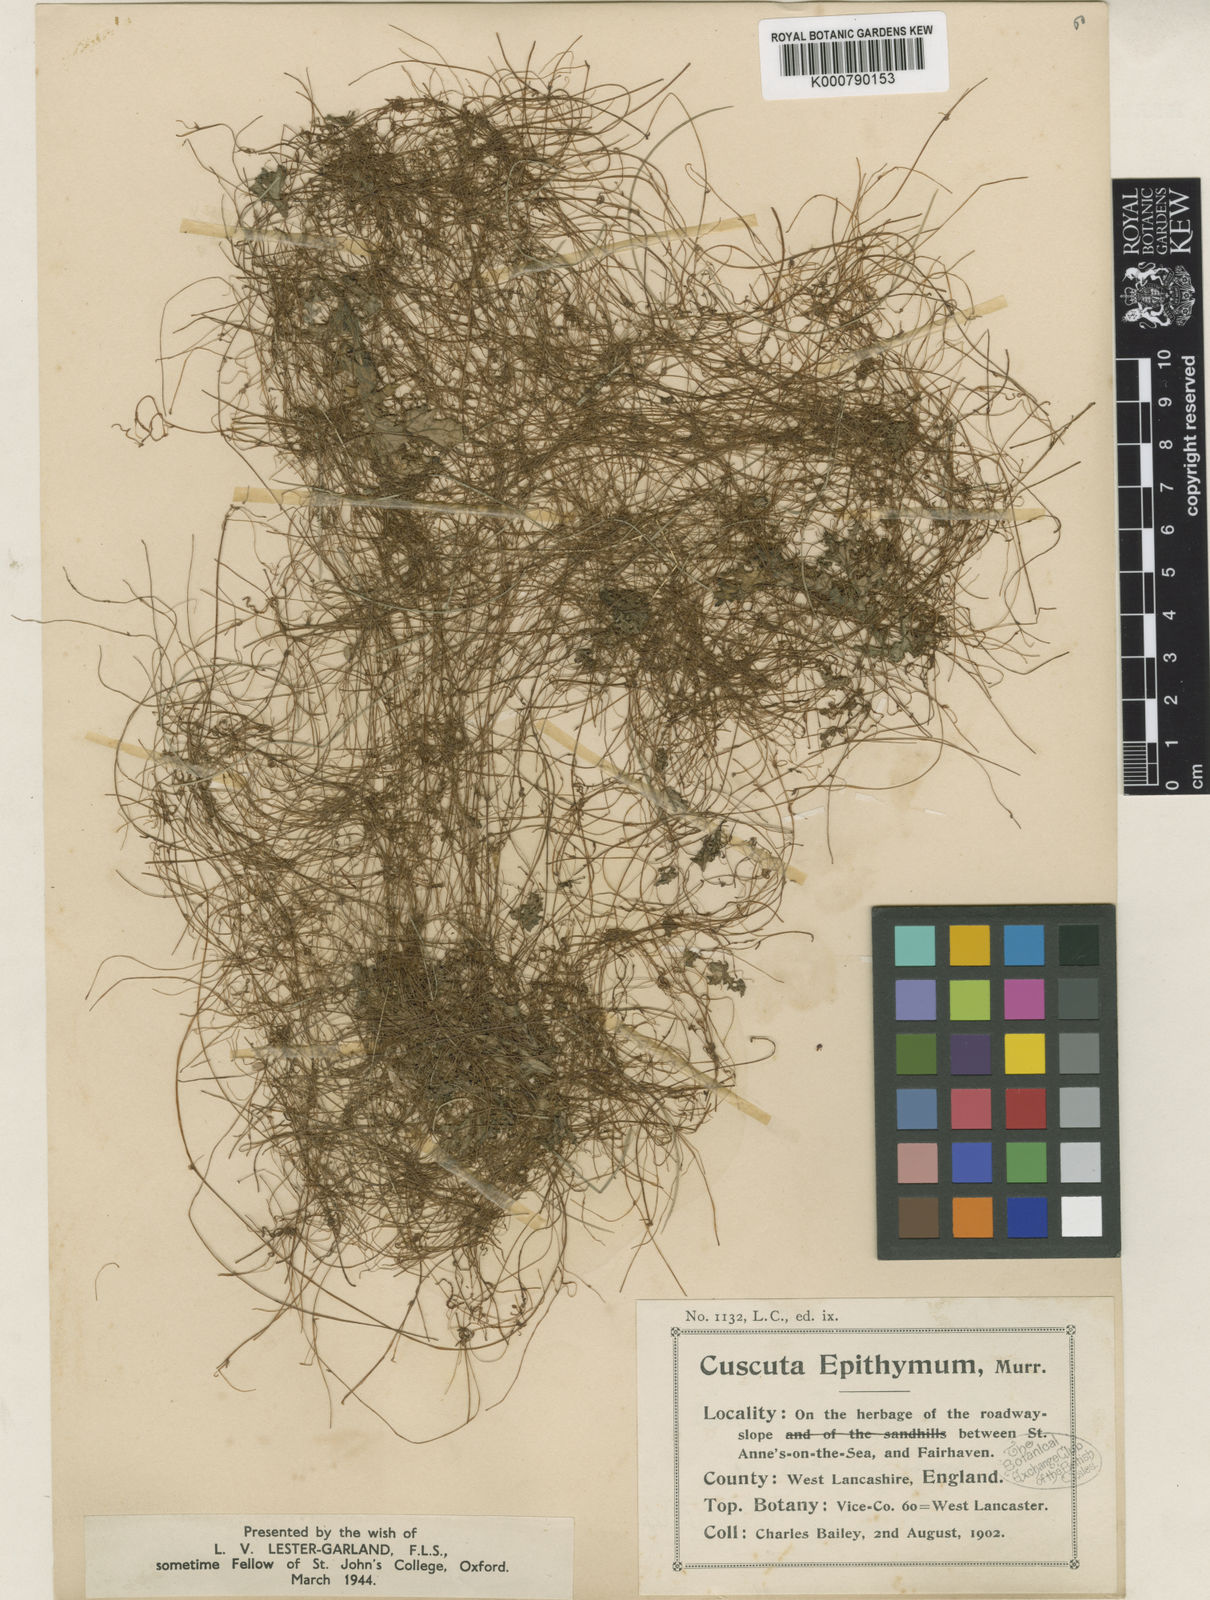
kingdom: Plantae
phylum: Tracheophyta
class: Magnoliopsida
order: Solanales
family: Convolvulaceae
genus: Cuscuta
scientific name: Cuscuta epithymum
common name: Clover dodder
